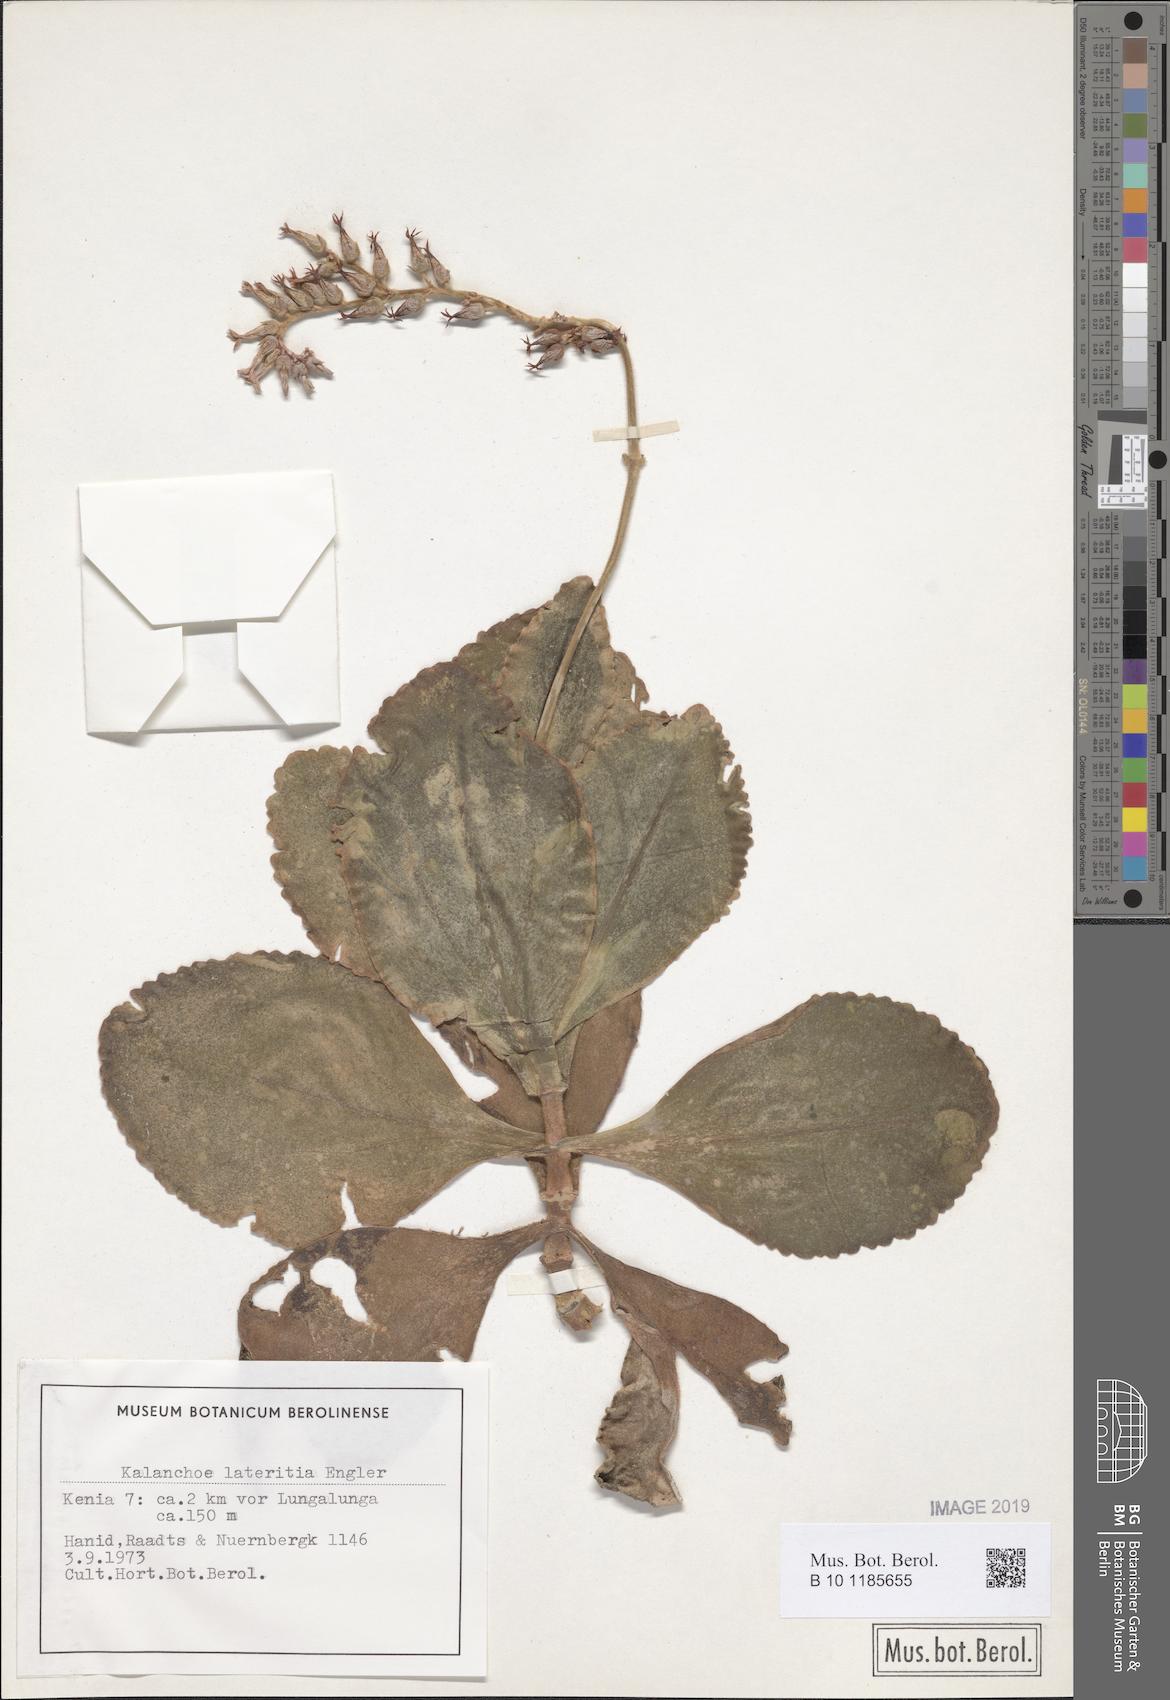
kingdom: Plantae
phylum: Tracheophyta
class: Magnoliopsida
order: Saxifragales
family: Crassulaceae
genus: Kalanchoe
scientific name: Kalanchoe lateritia
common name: Kalanchoe
